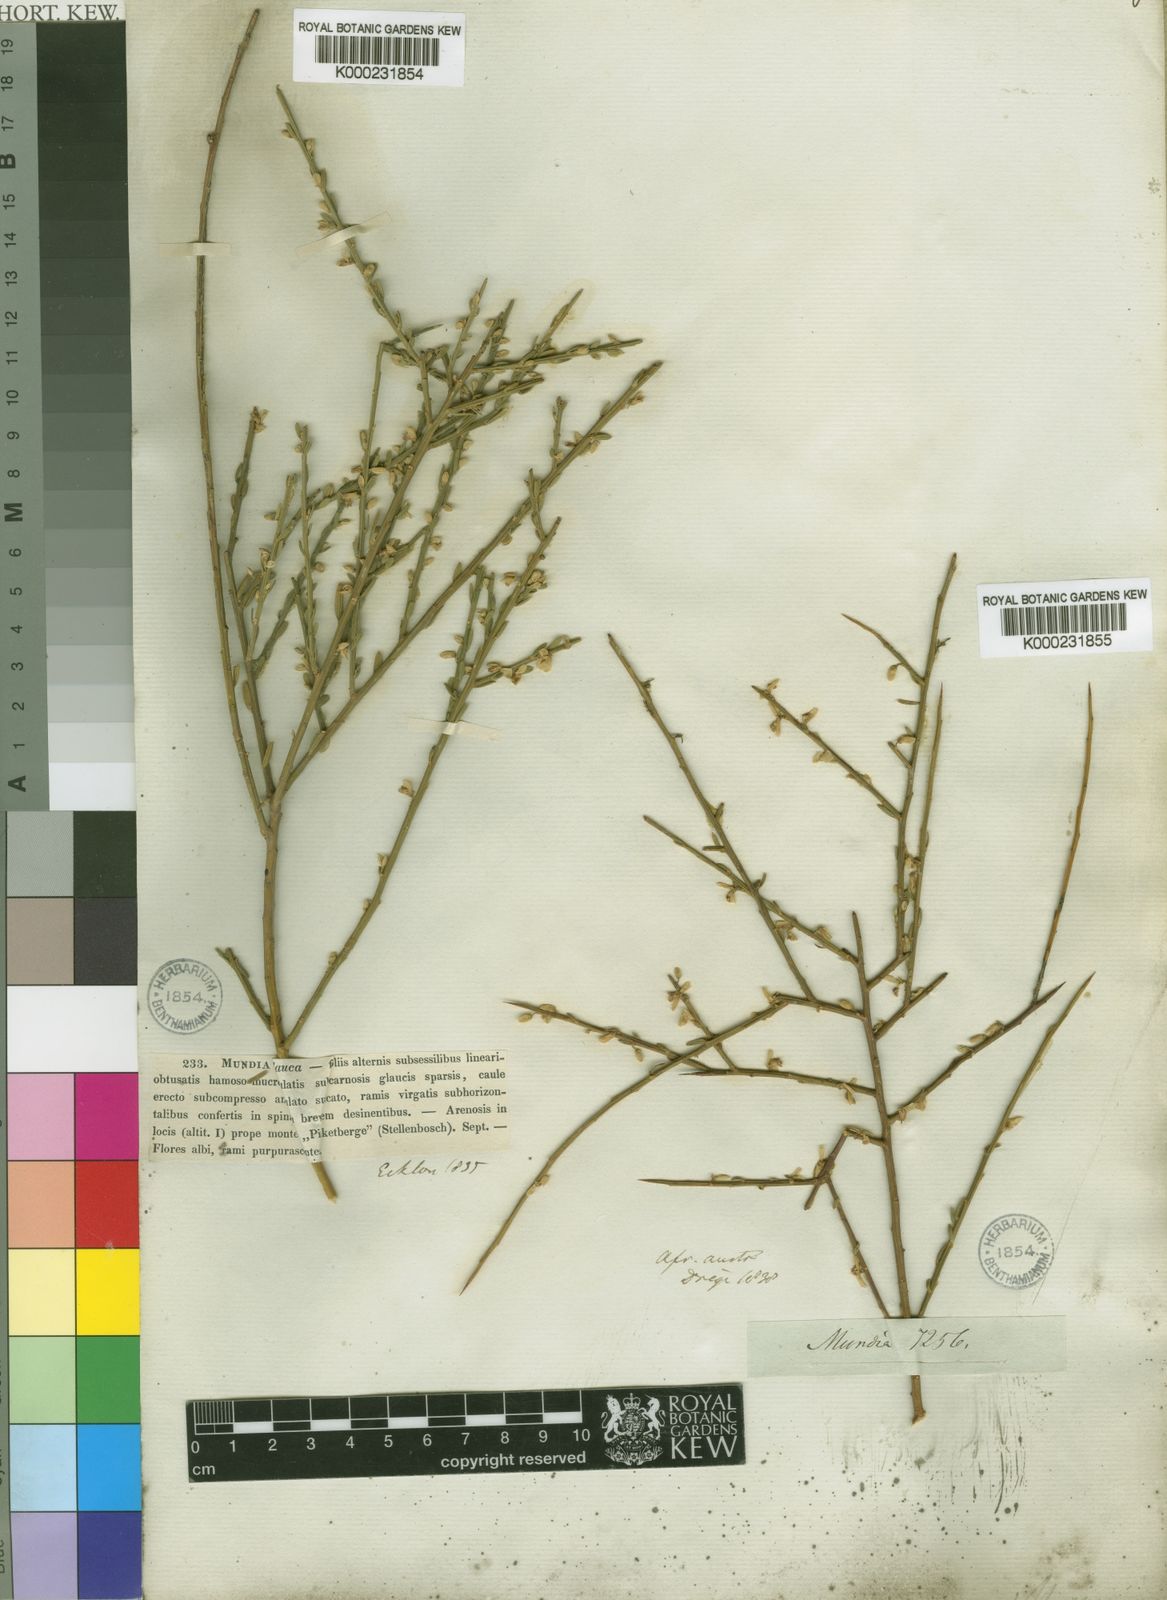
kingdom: Plantae
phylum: Tracheophyta
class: Magnoliopsida
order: Fabales
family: Polygalaceae
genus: Muraltia
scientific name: Muraltia spinosa
